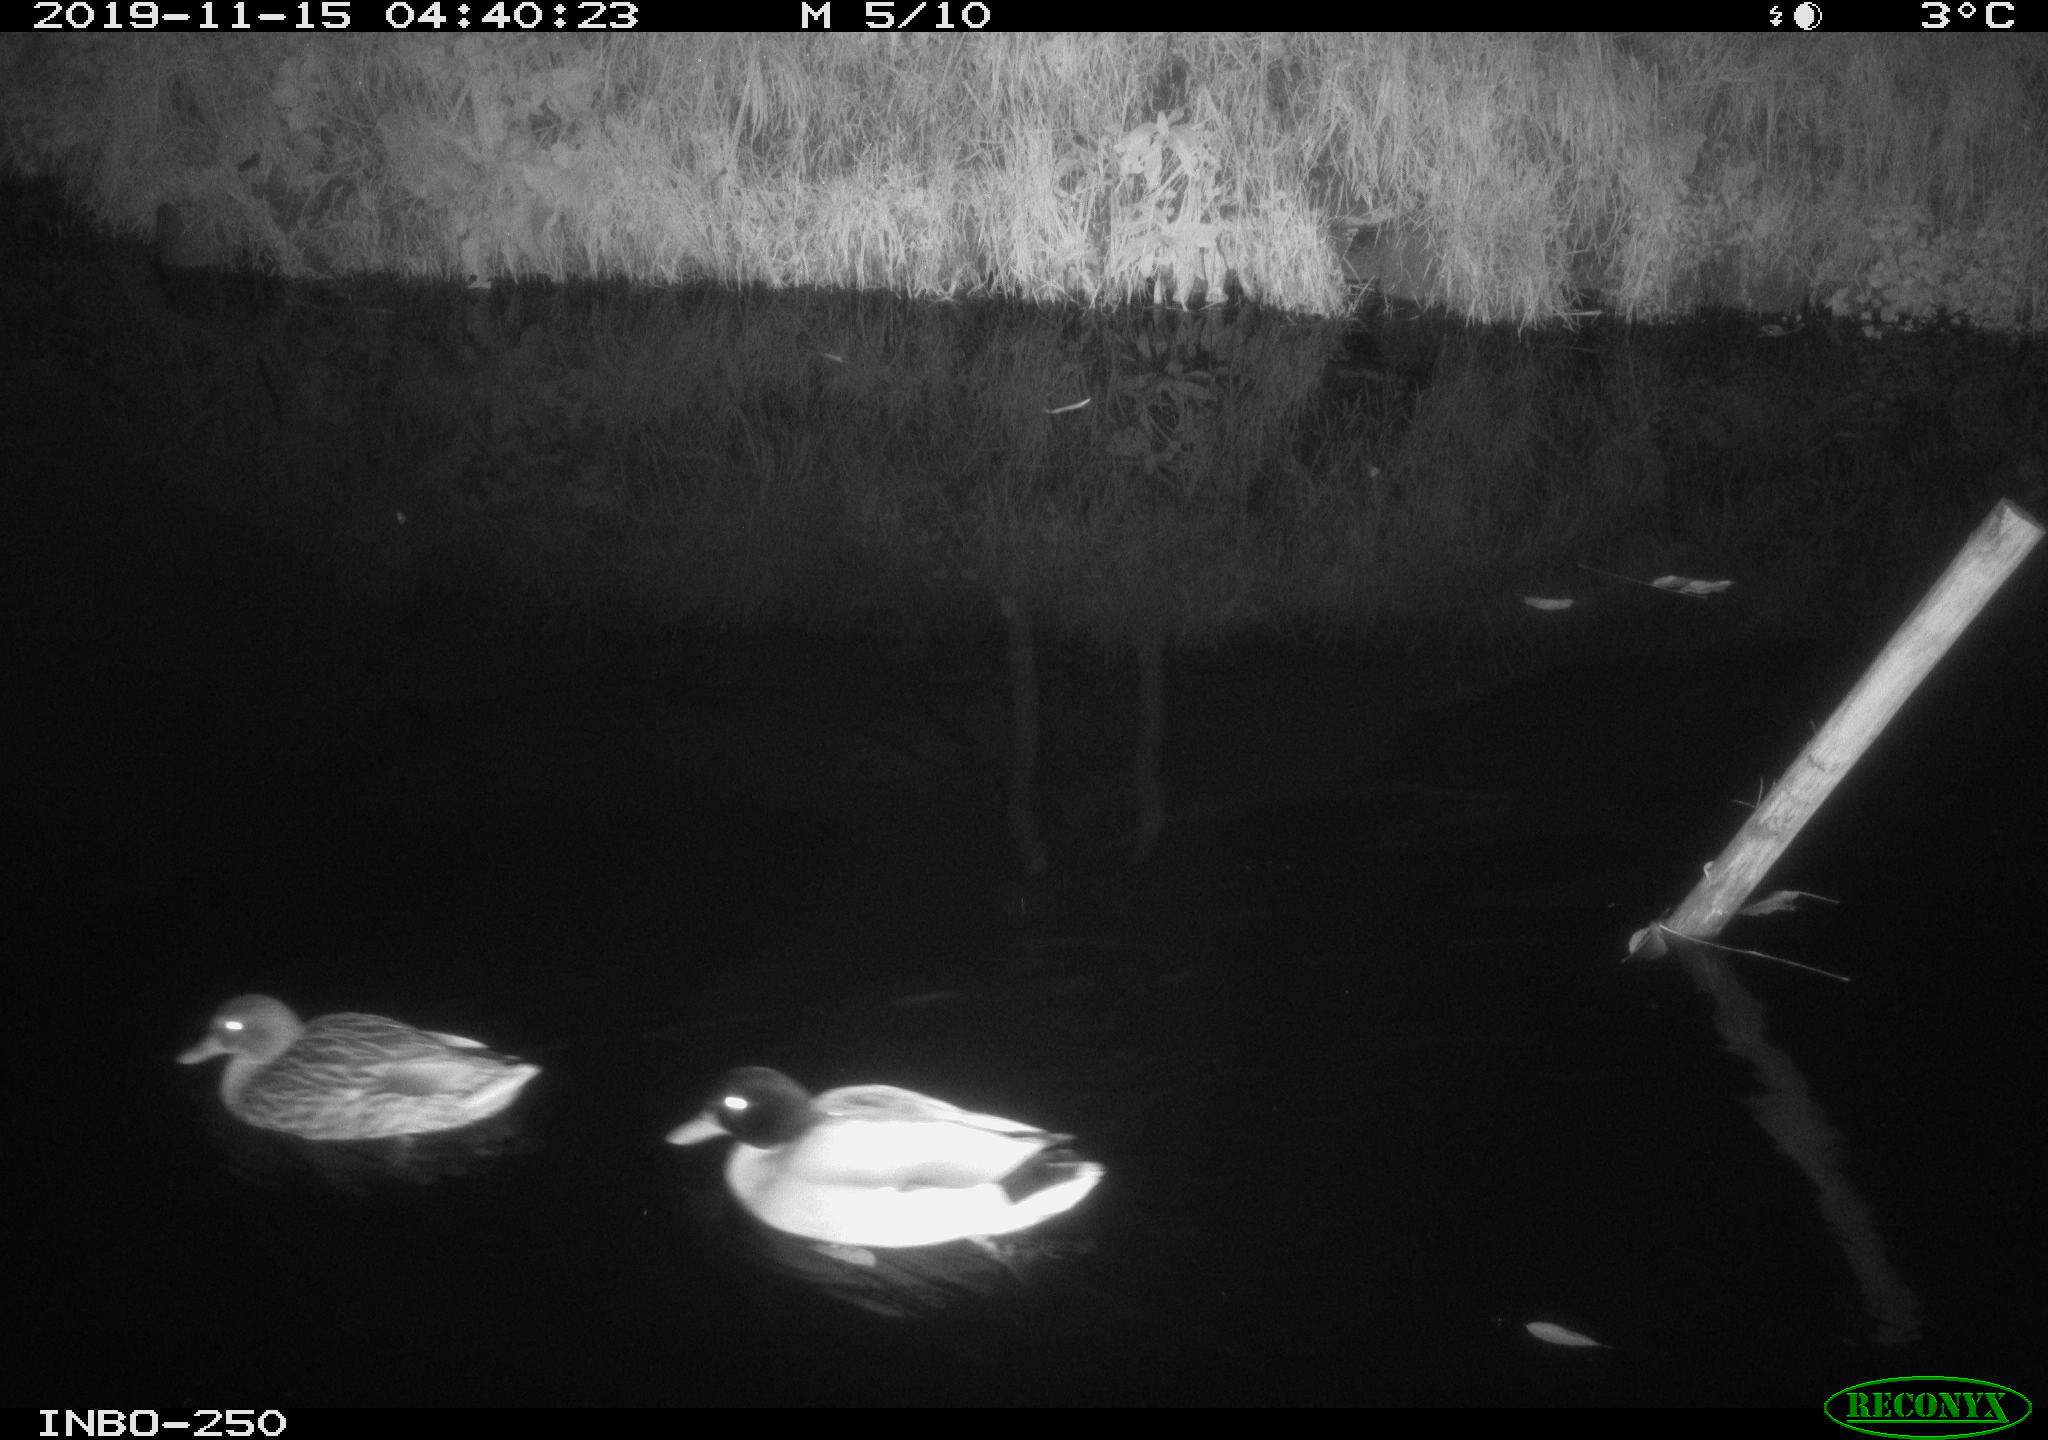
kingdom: Animalia
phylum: Chordata
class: Aves
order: Anseriformes
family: Anatidae
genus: Anas
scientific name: Anas platyrhynchos
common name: Mallard
